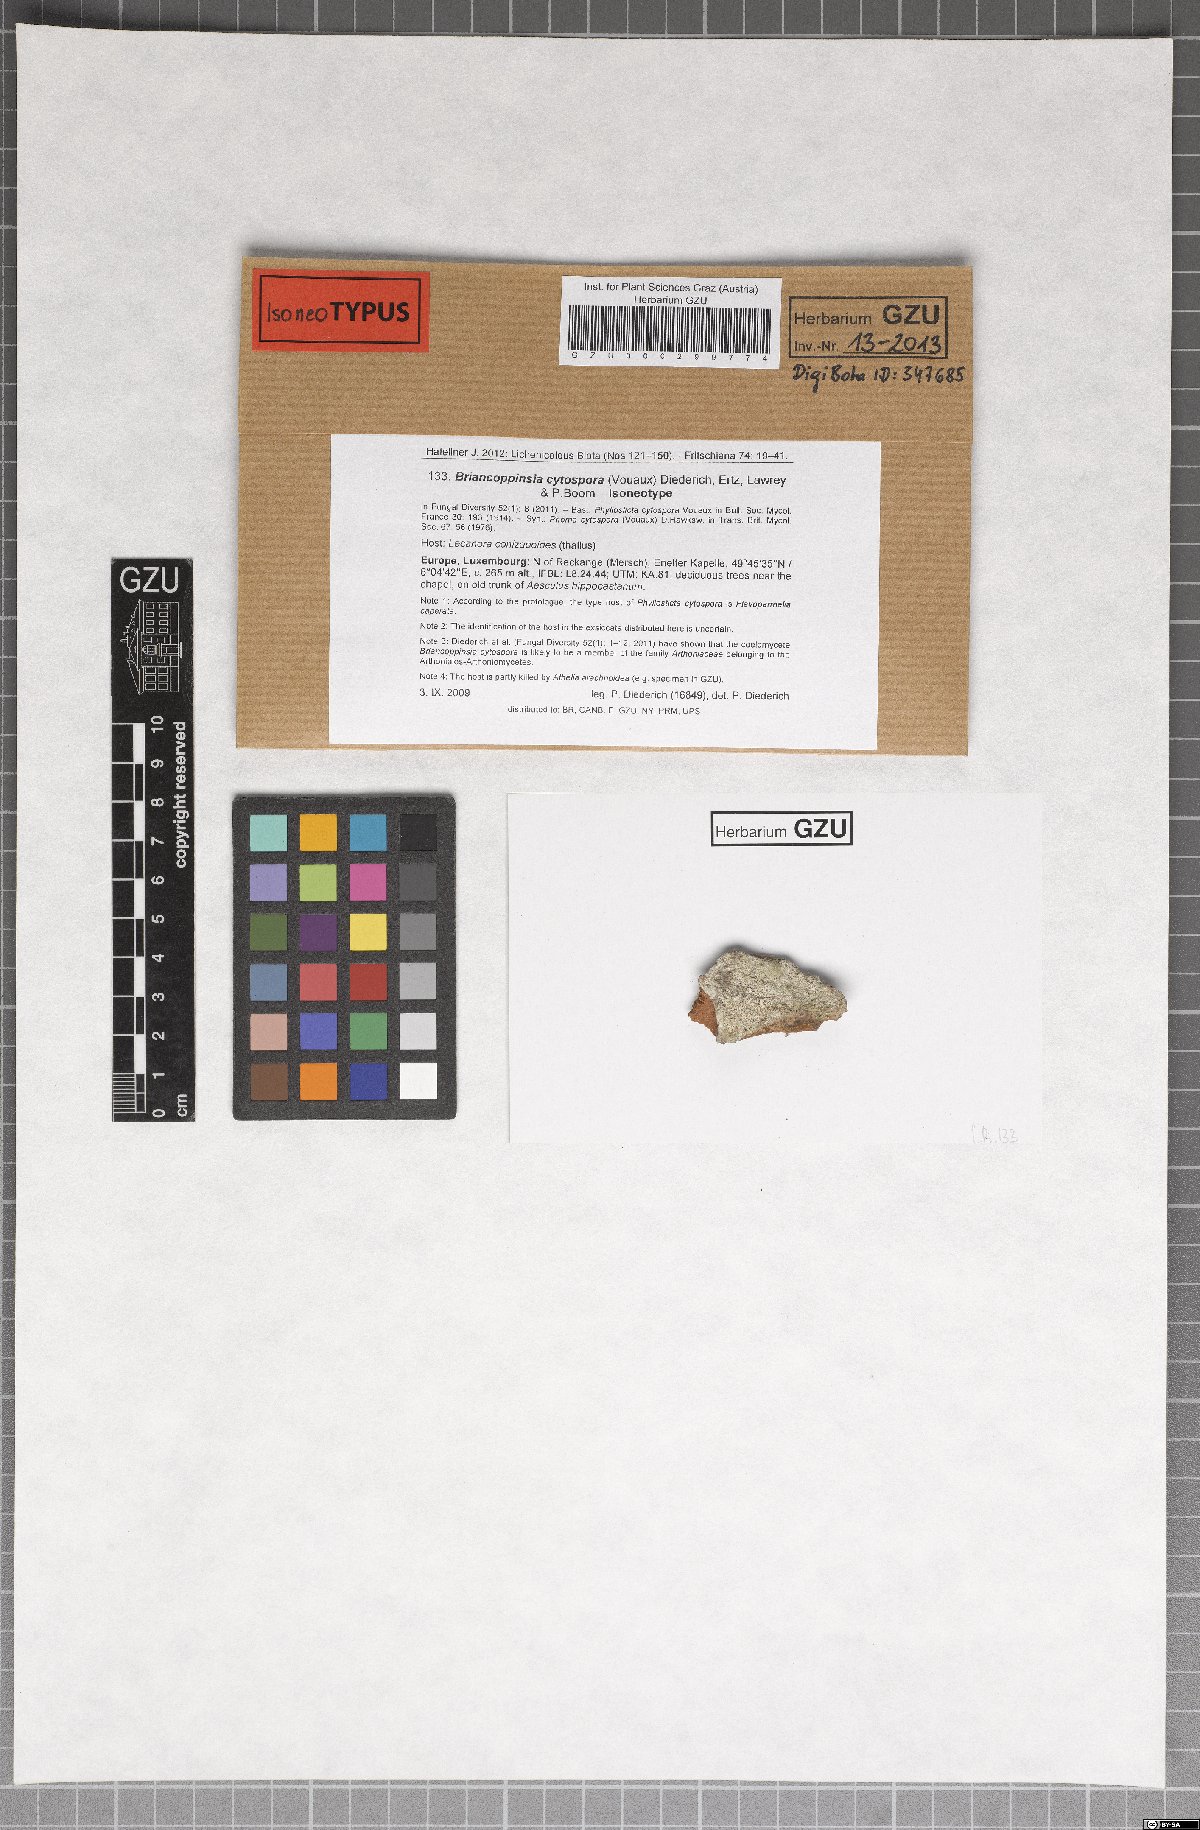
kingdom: Fungi
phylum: Ascomycota
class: Arthoniomycetes
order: Arthoniales
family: Arthoniaceae
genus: Briancoppinsia
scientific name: Briancoppinsia cytospora
